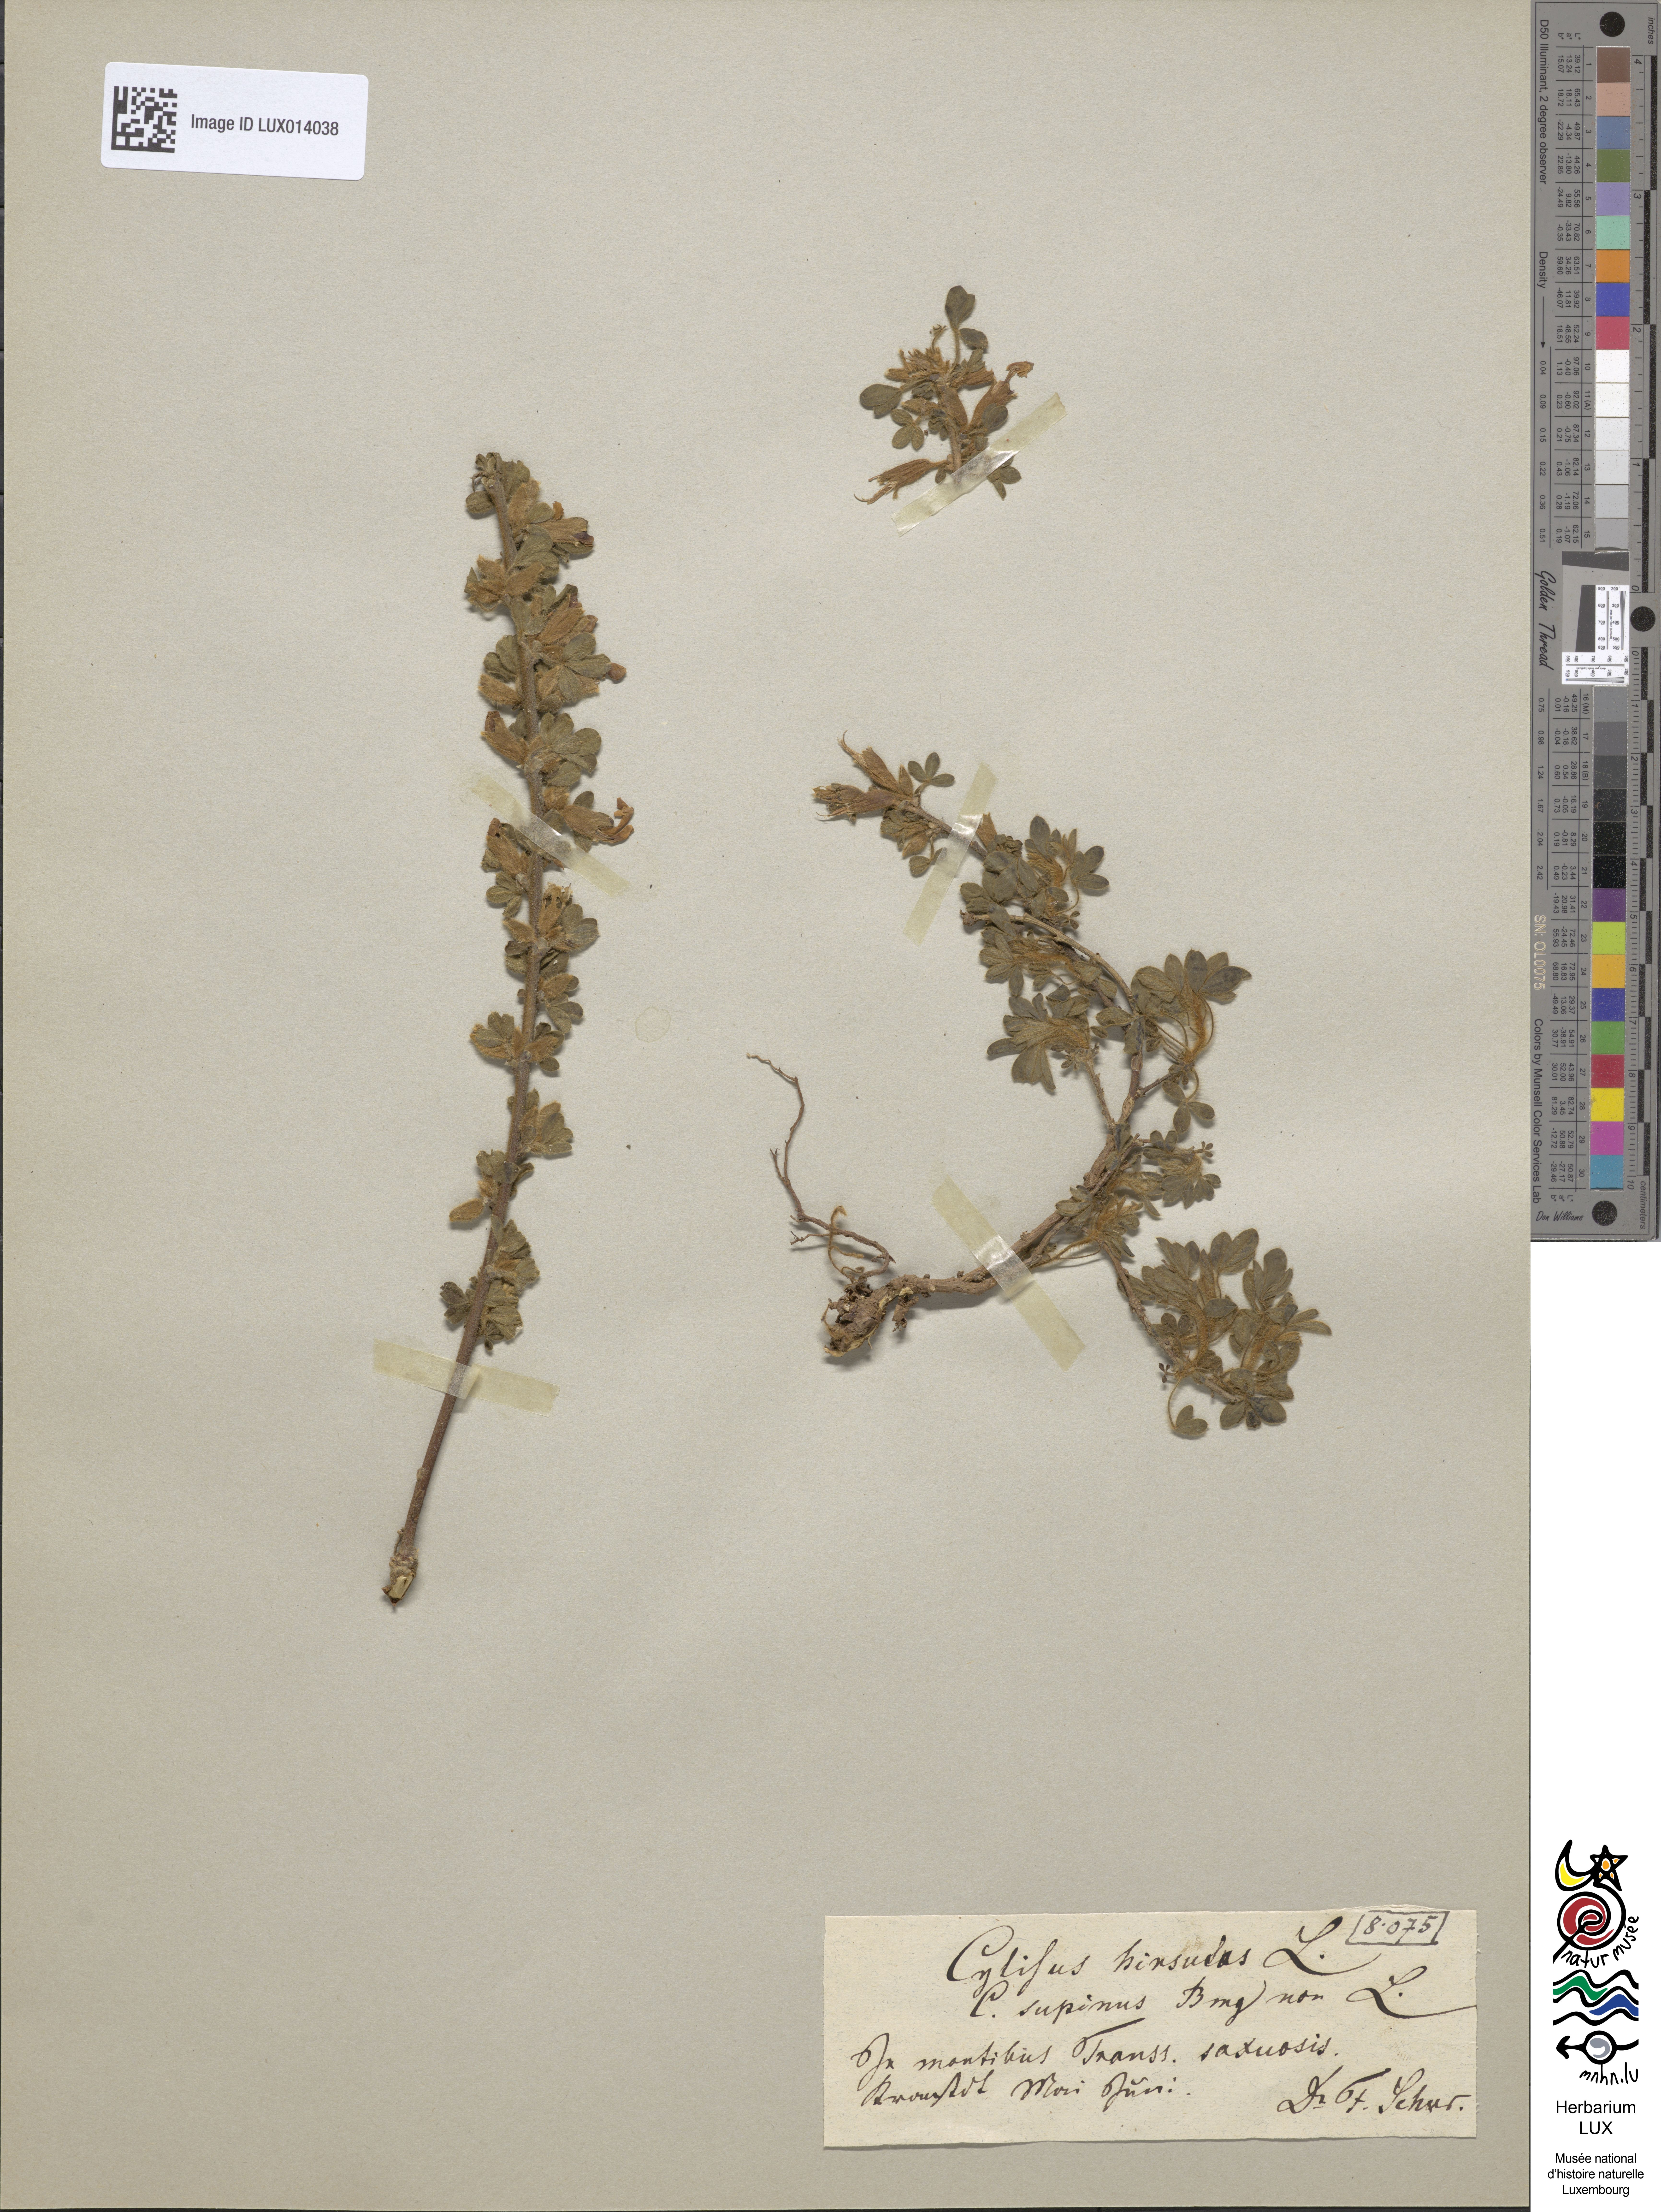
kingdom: Plantae
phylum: Tracheophyta
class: Magnoliopsida
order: Fabales
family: Fabaceae
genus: Chamaecytisus
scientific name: Chamaecytisus hirsutus
